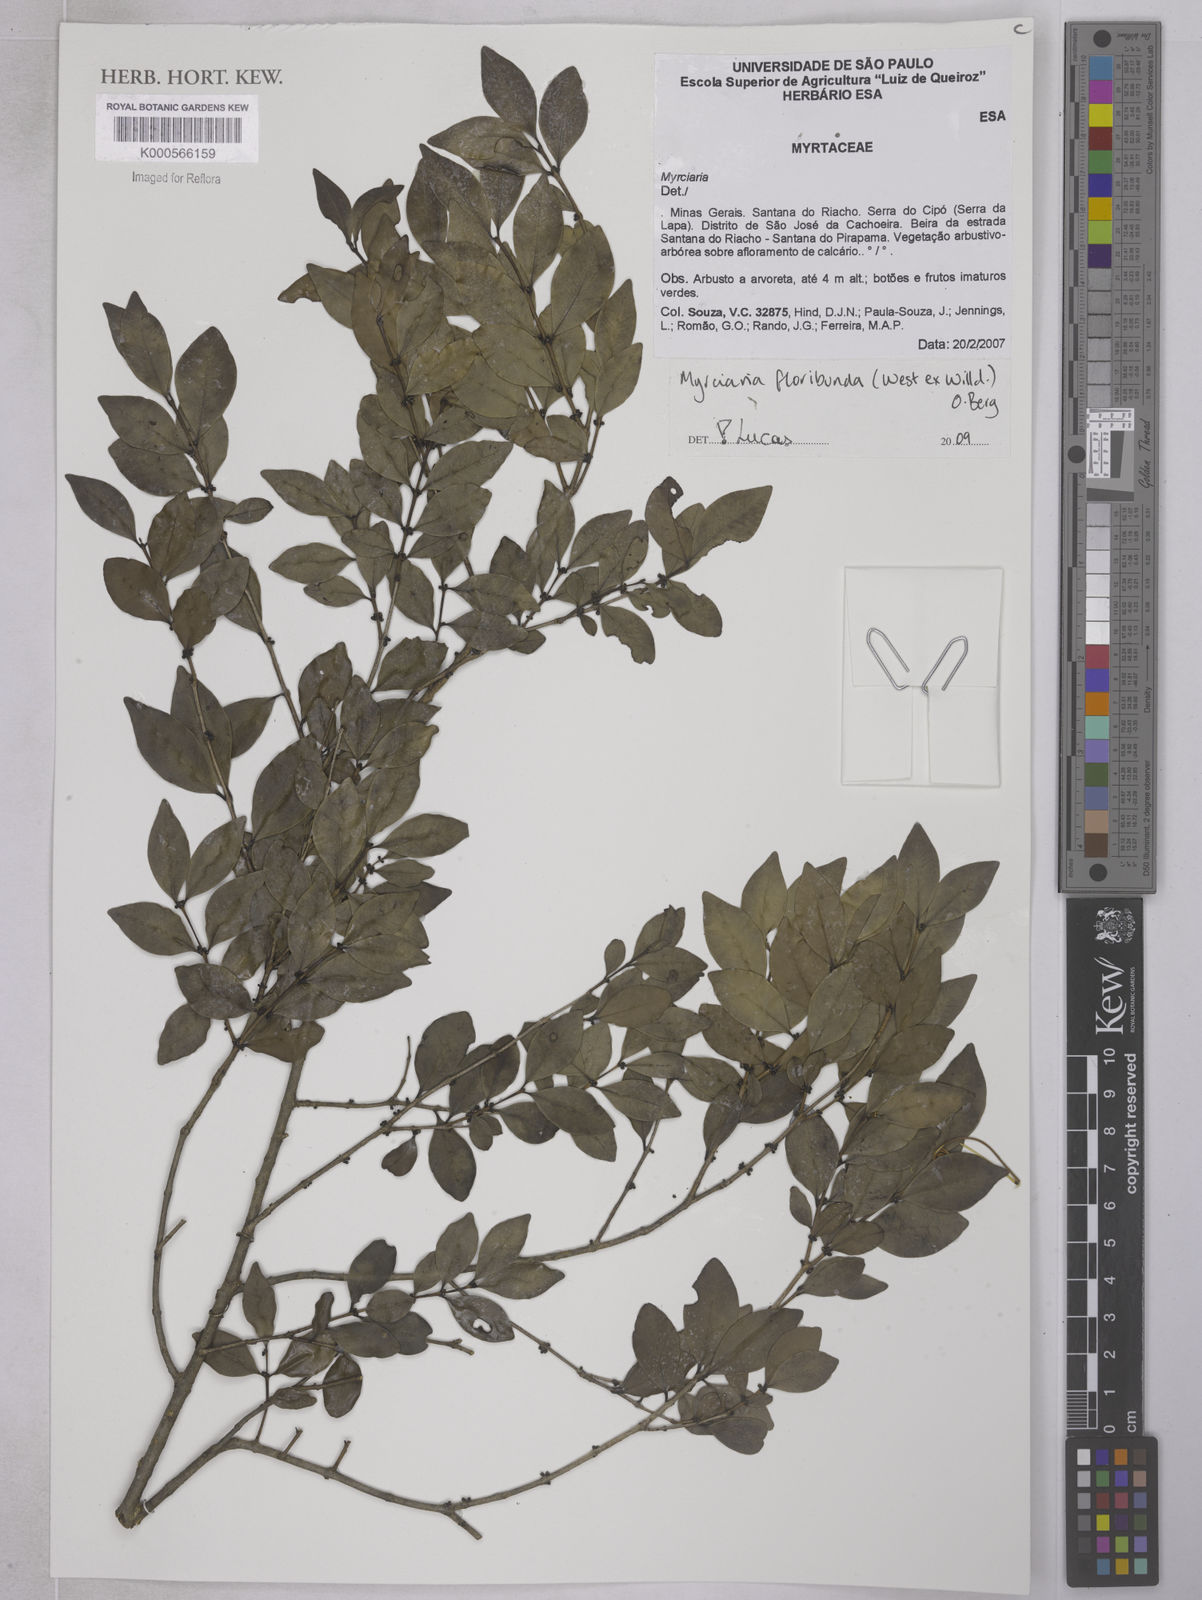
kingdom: Plantae
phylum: Tracheophyta
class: Magnoliopsida
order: Myrtales
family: Myrtaceae
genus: Myrciaria
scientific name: Myrciaria floribunda
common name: Guavaberry
